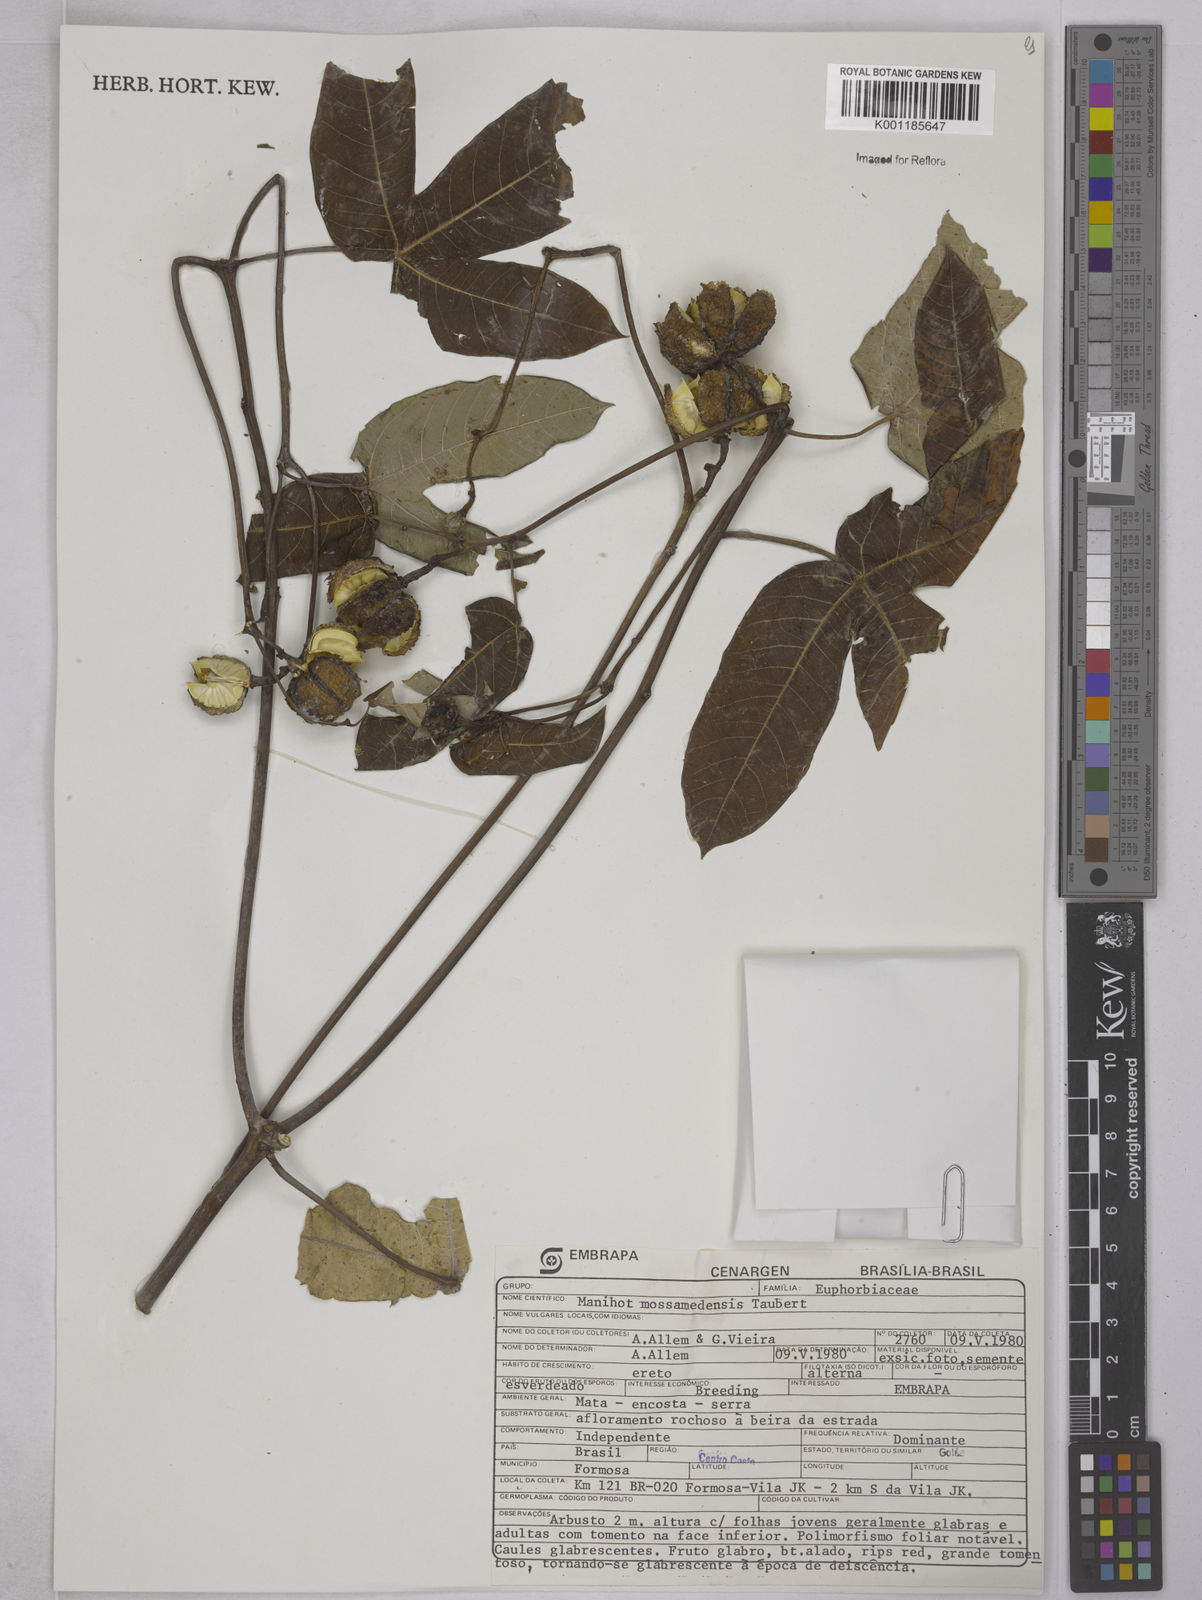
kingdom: Plantae
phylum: Tracheophyta
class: Magnoliopsida
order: Malpighiales
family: Euphorbiaceae
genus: Manihot
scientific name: Manihot cecropiifolia
